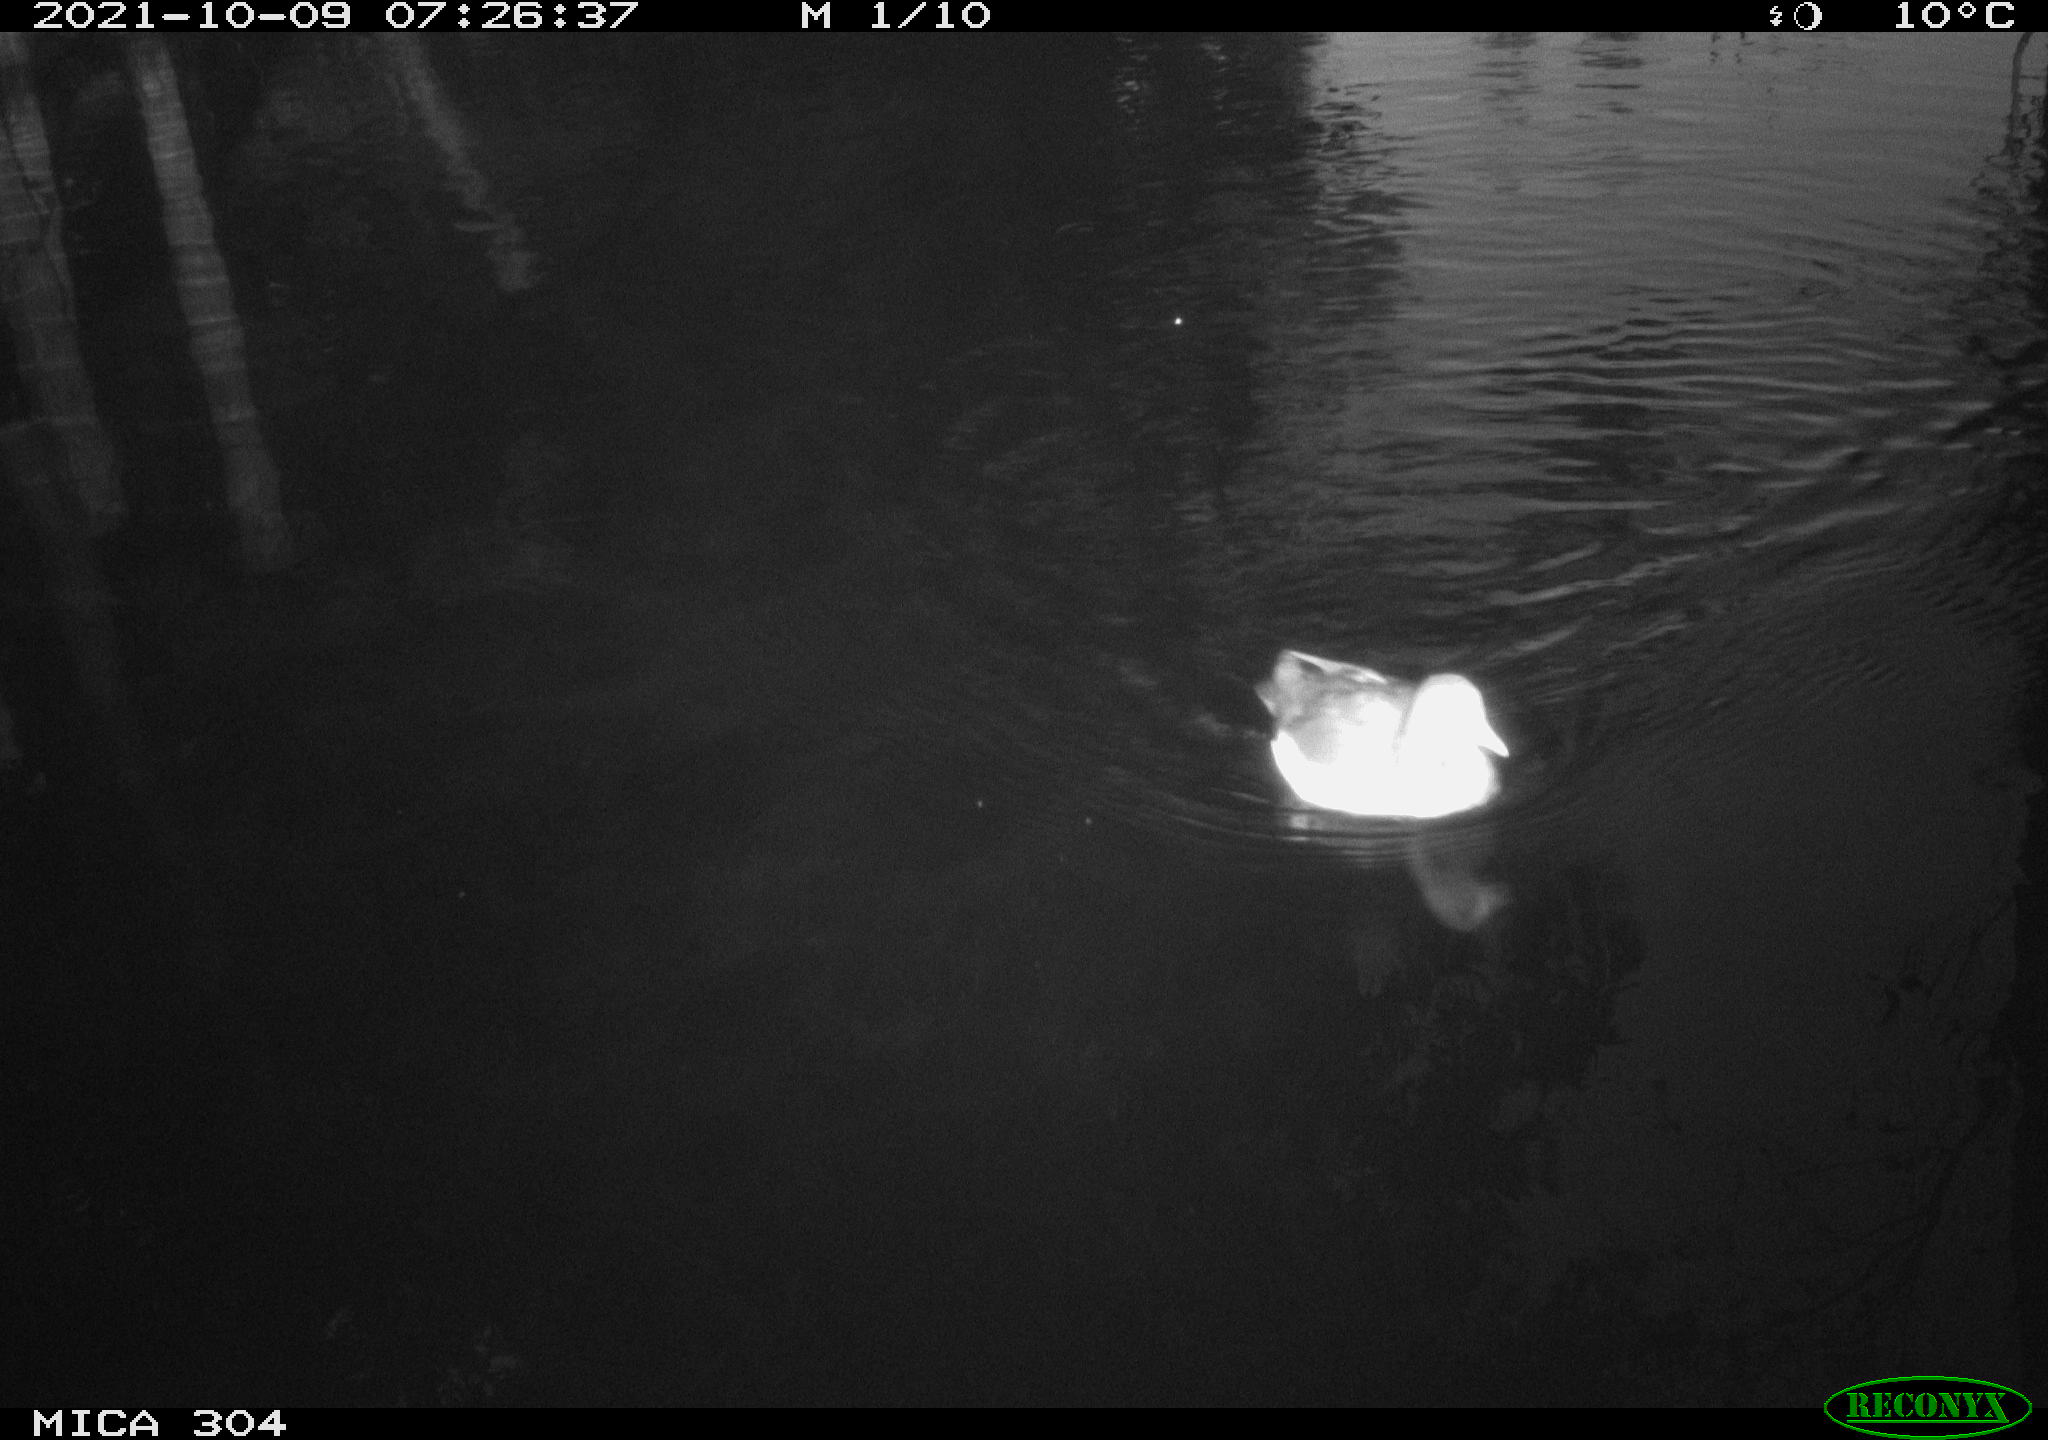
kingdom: Animalia
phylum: Chordata
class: Aves
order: Gruiformes
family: Rallidae
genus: Gallinula
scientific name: Gallinula chloropus
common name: Common moorhen
